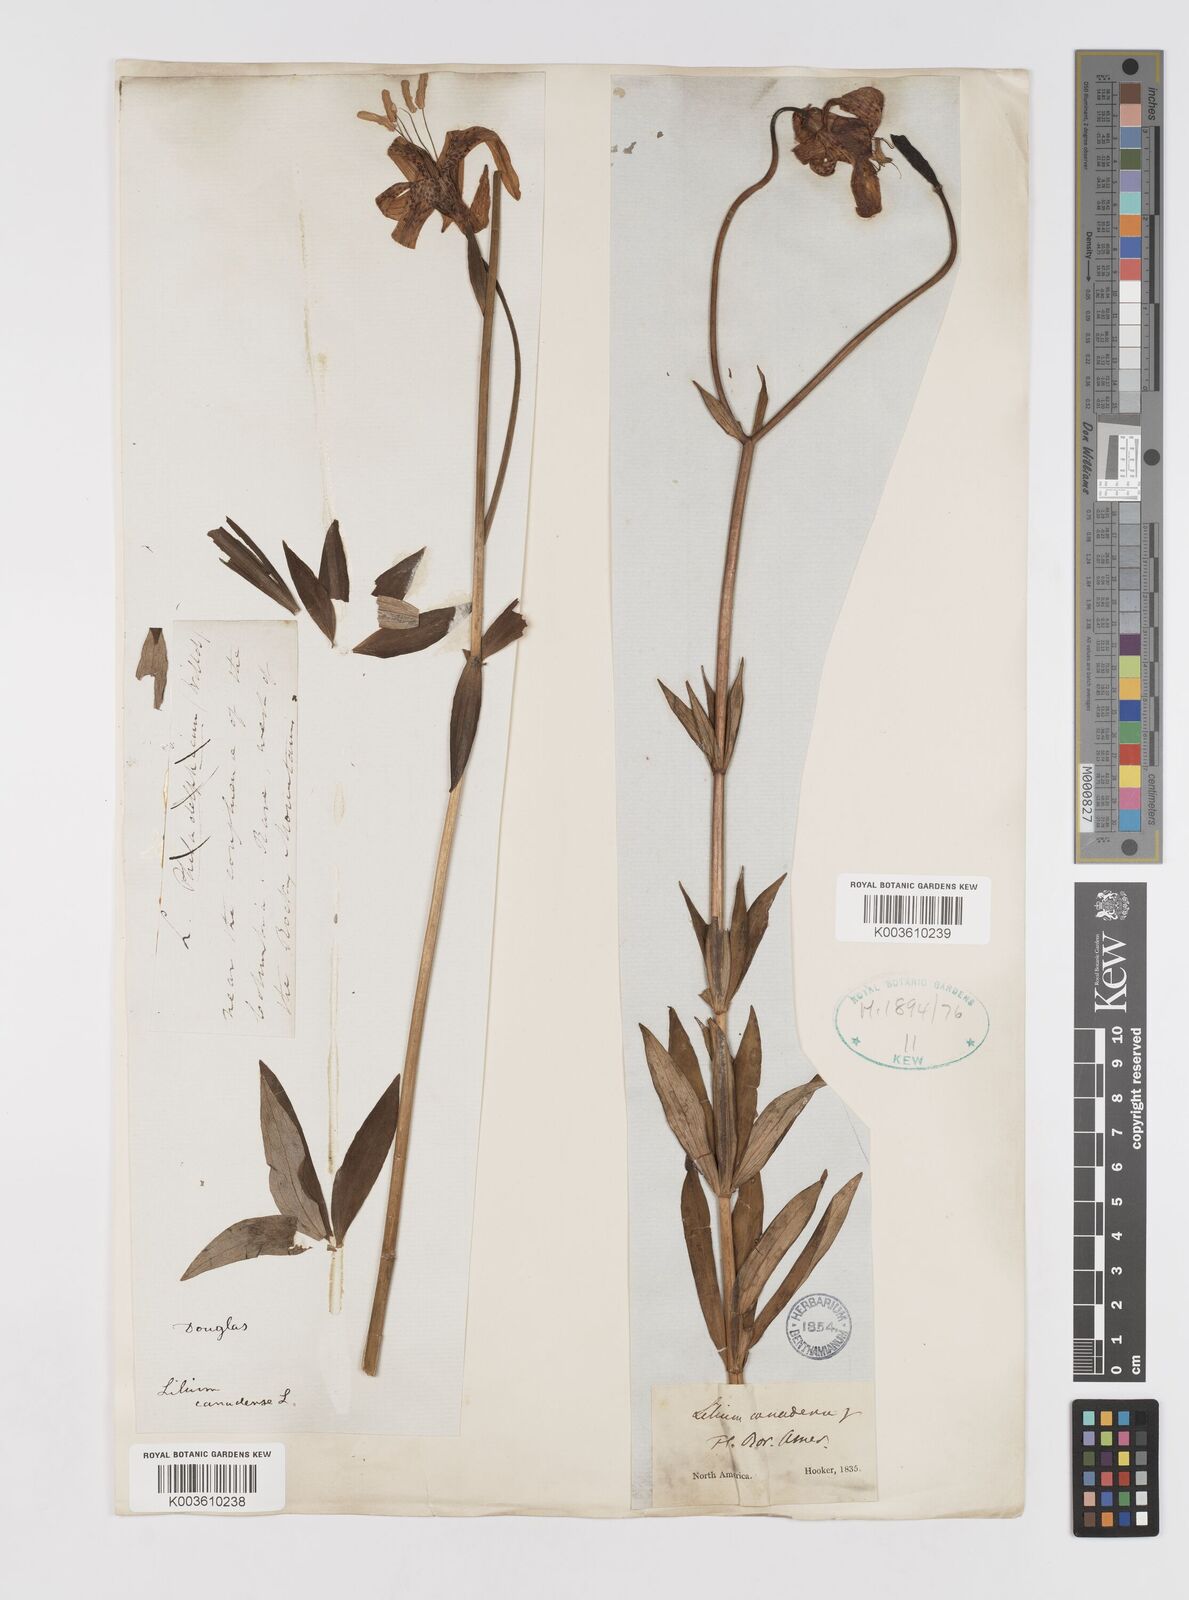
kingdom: Plantae
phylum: Tracheophyta
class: Liliopsida
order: Liliales
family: Liliaceae
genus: Lilium
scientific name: Lilium canadense
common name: Canada lily
